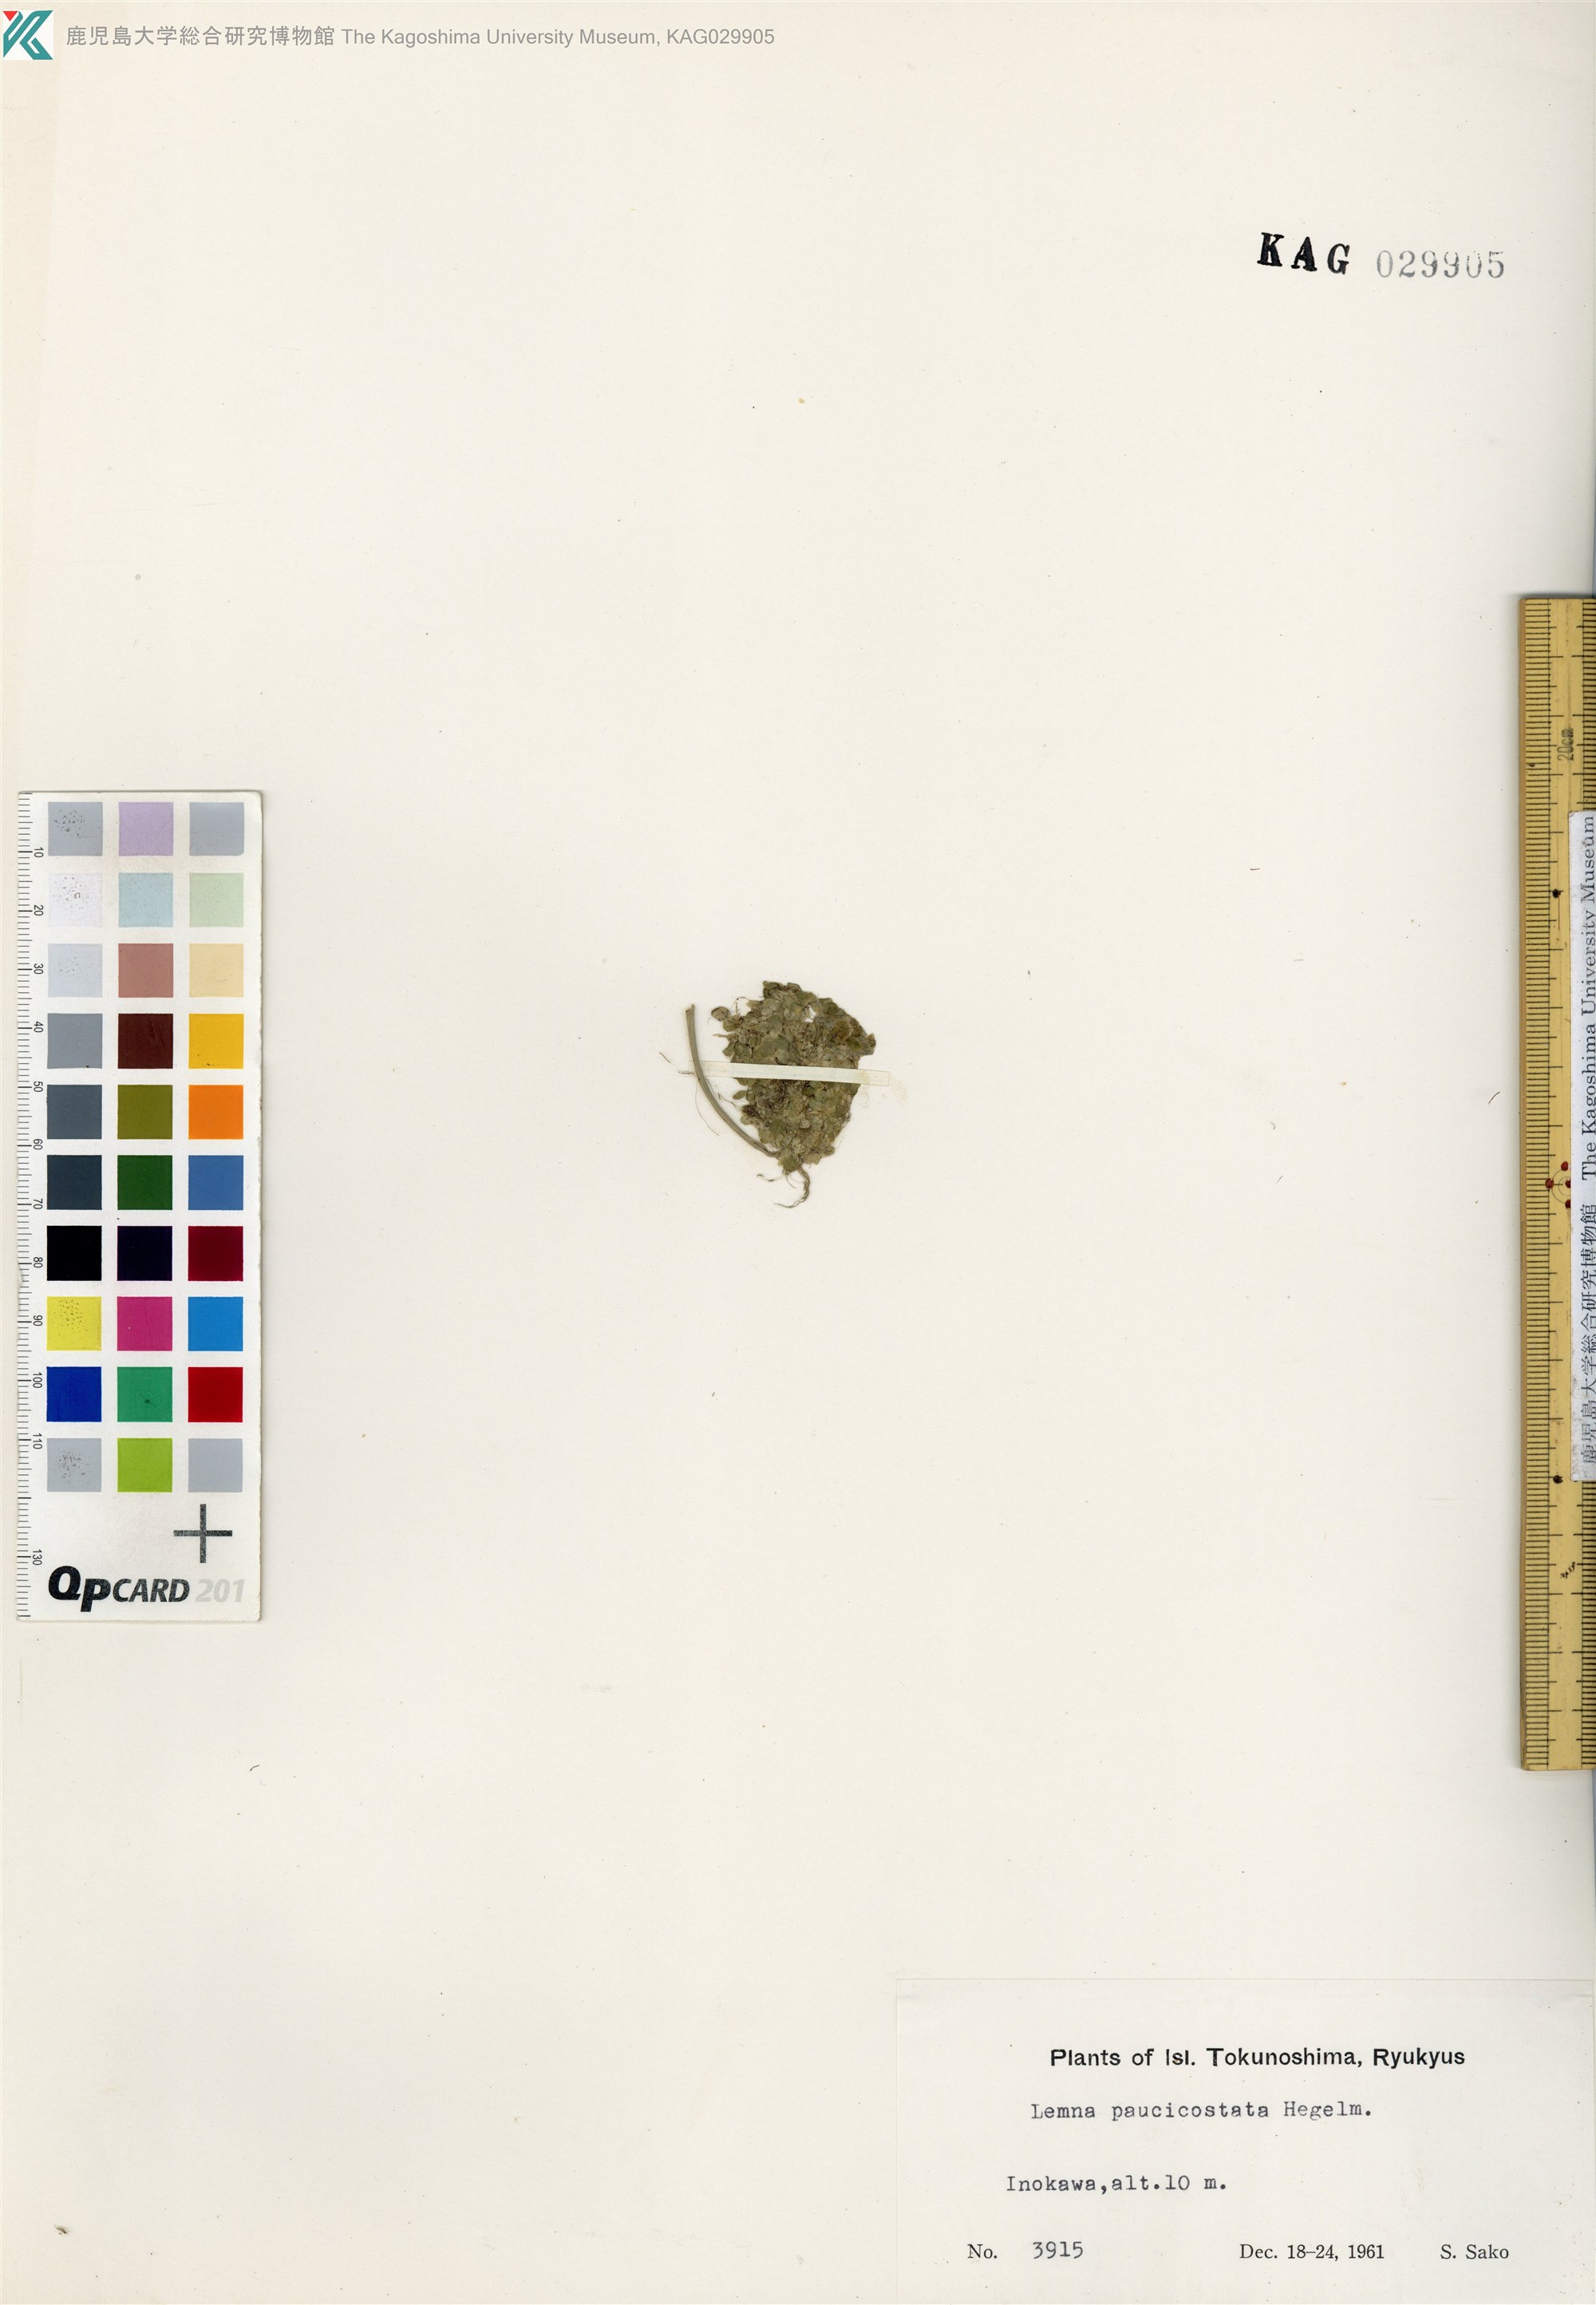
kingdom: Plantae
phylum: Tracheophyta
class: Liliopsida
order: Alismatales
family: Araceae
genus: Lemna
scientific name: Lemna aequinoctialis
